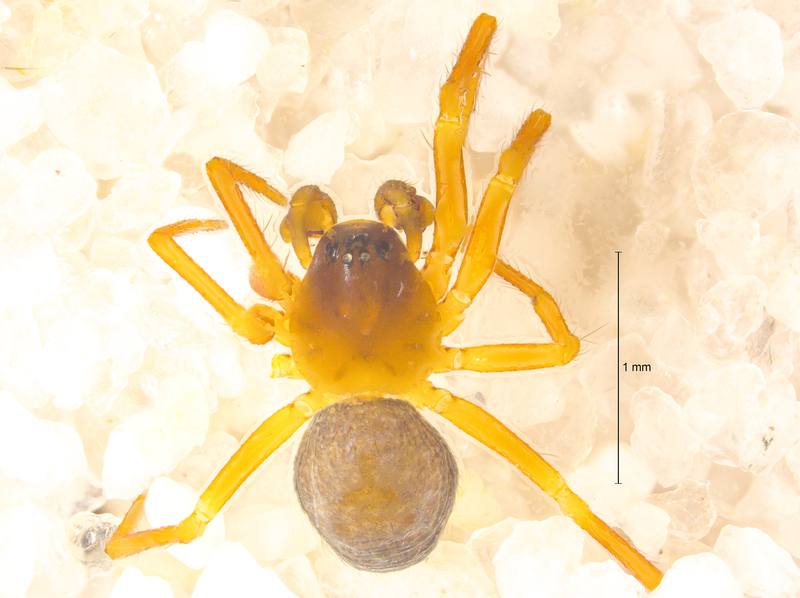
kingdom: Animalia
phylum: Arthropoda
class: Arachnida
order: Araneae
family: Linyphiidae
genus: Maso
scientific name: Maso sundevalli
